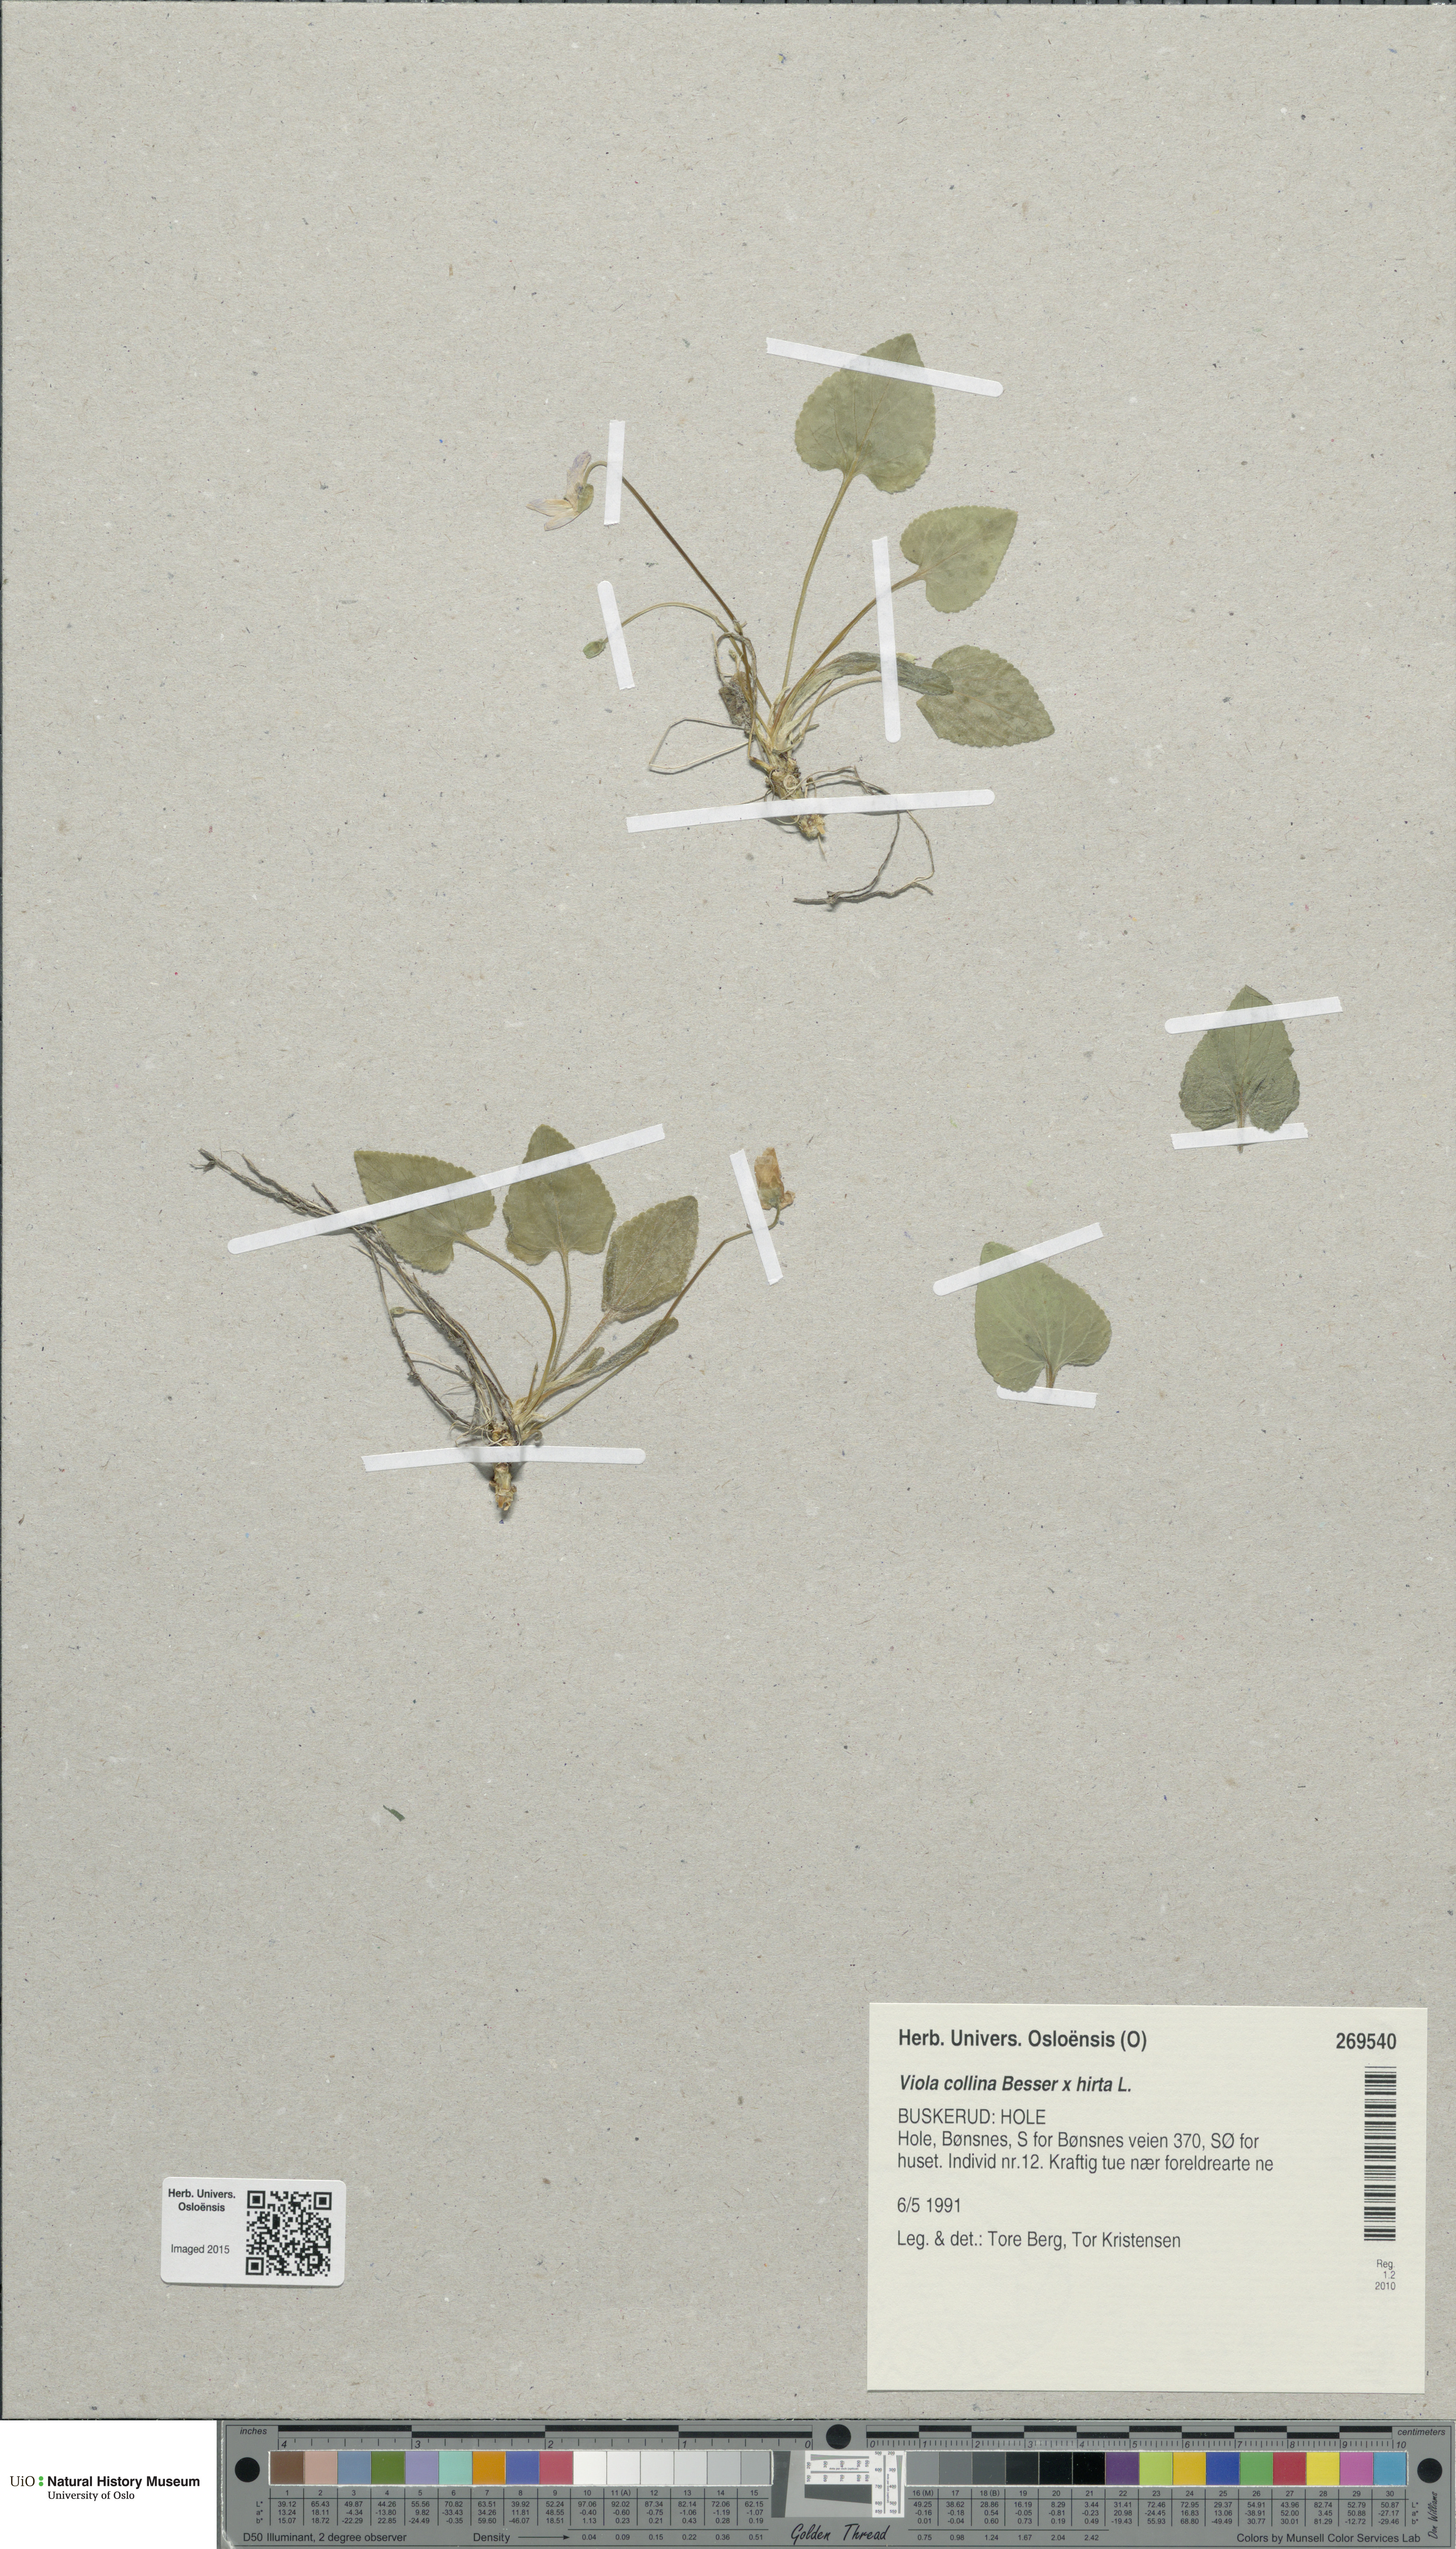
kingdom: Plantae
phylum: Tracheophyta
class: Magnoliopsida
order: Malpighiales
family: Violaceae
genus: Viola
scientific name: Viola
